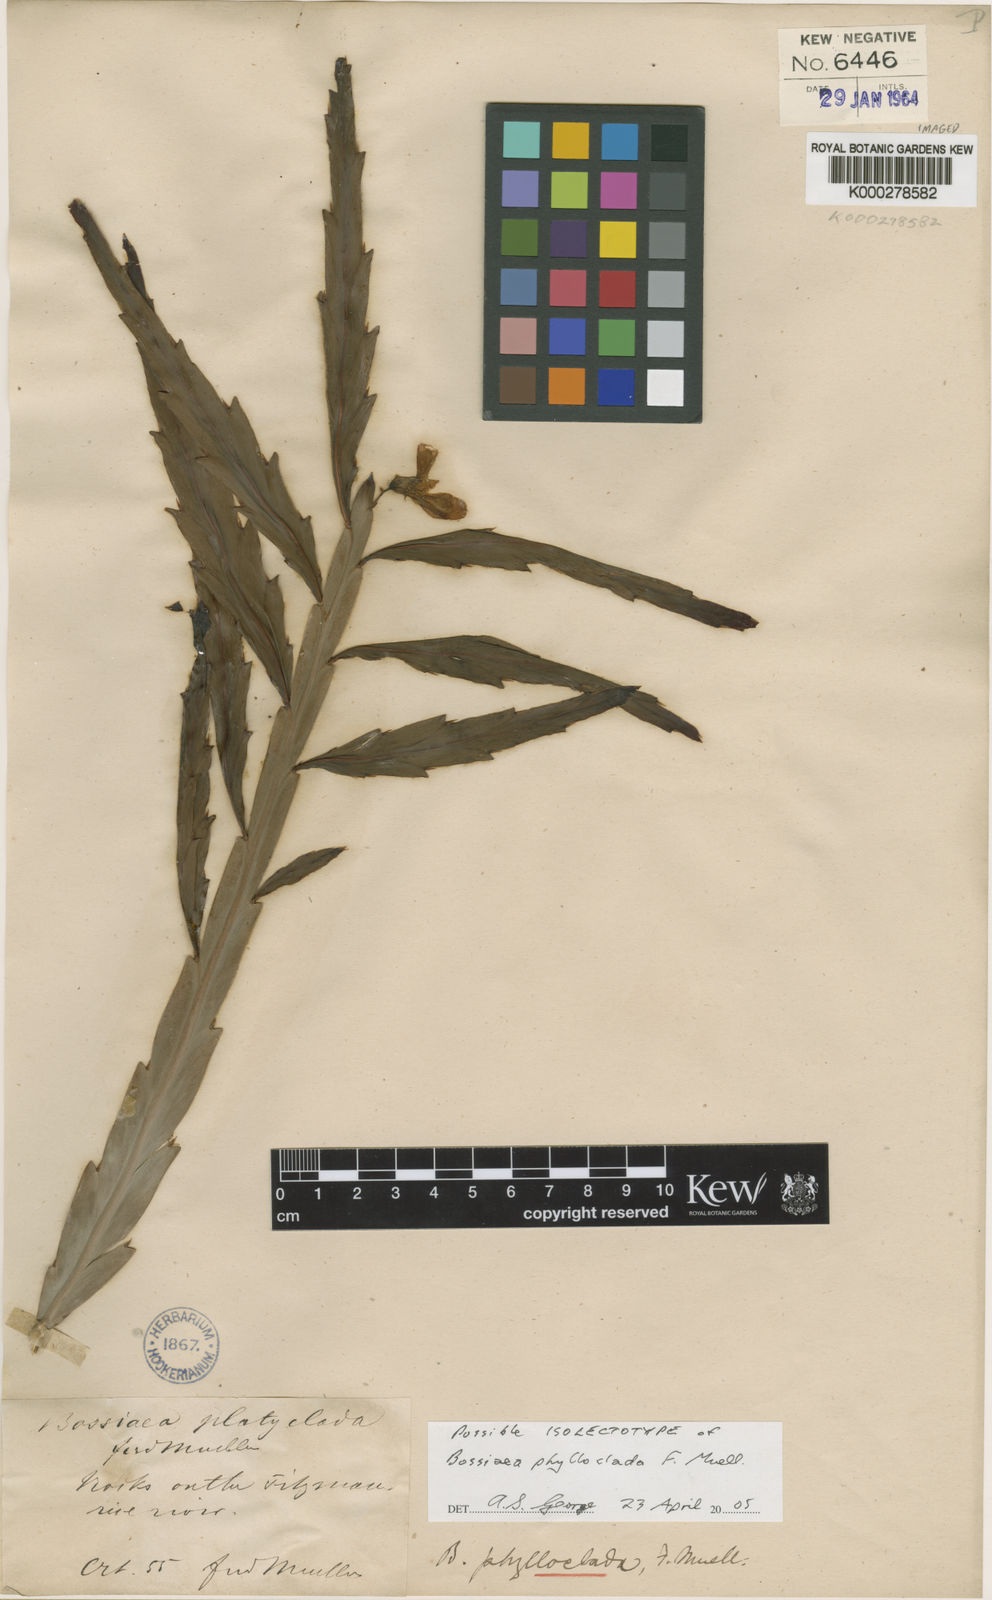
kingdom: Plantae
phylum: Tracheophyta
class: Magnoliopsida
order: Fabales
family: Fabaceae
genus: Bossiaea
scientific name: Bossiaea phylloclada
